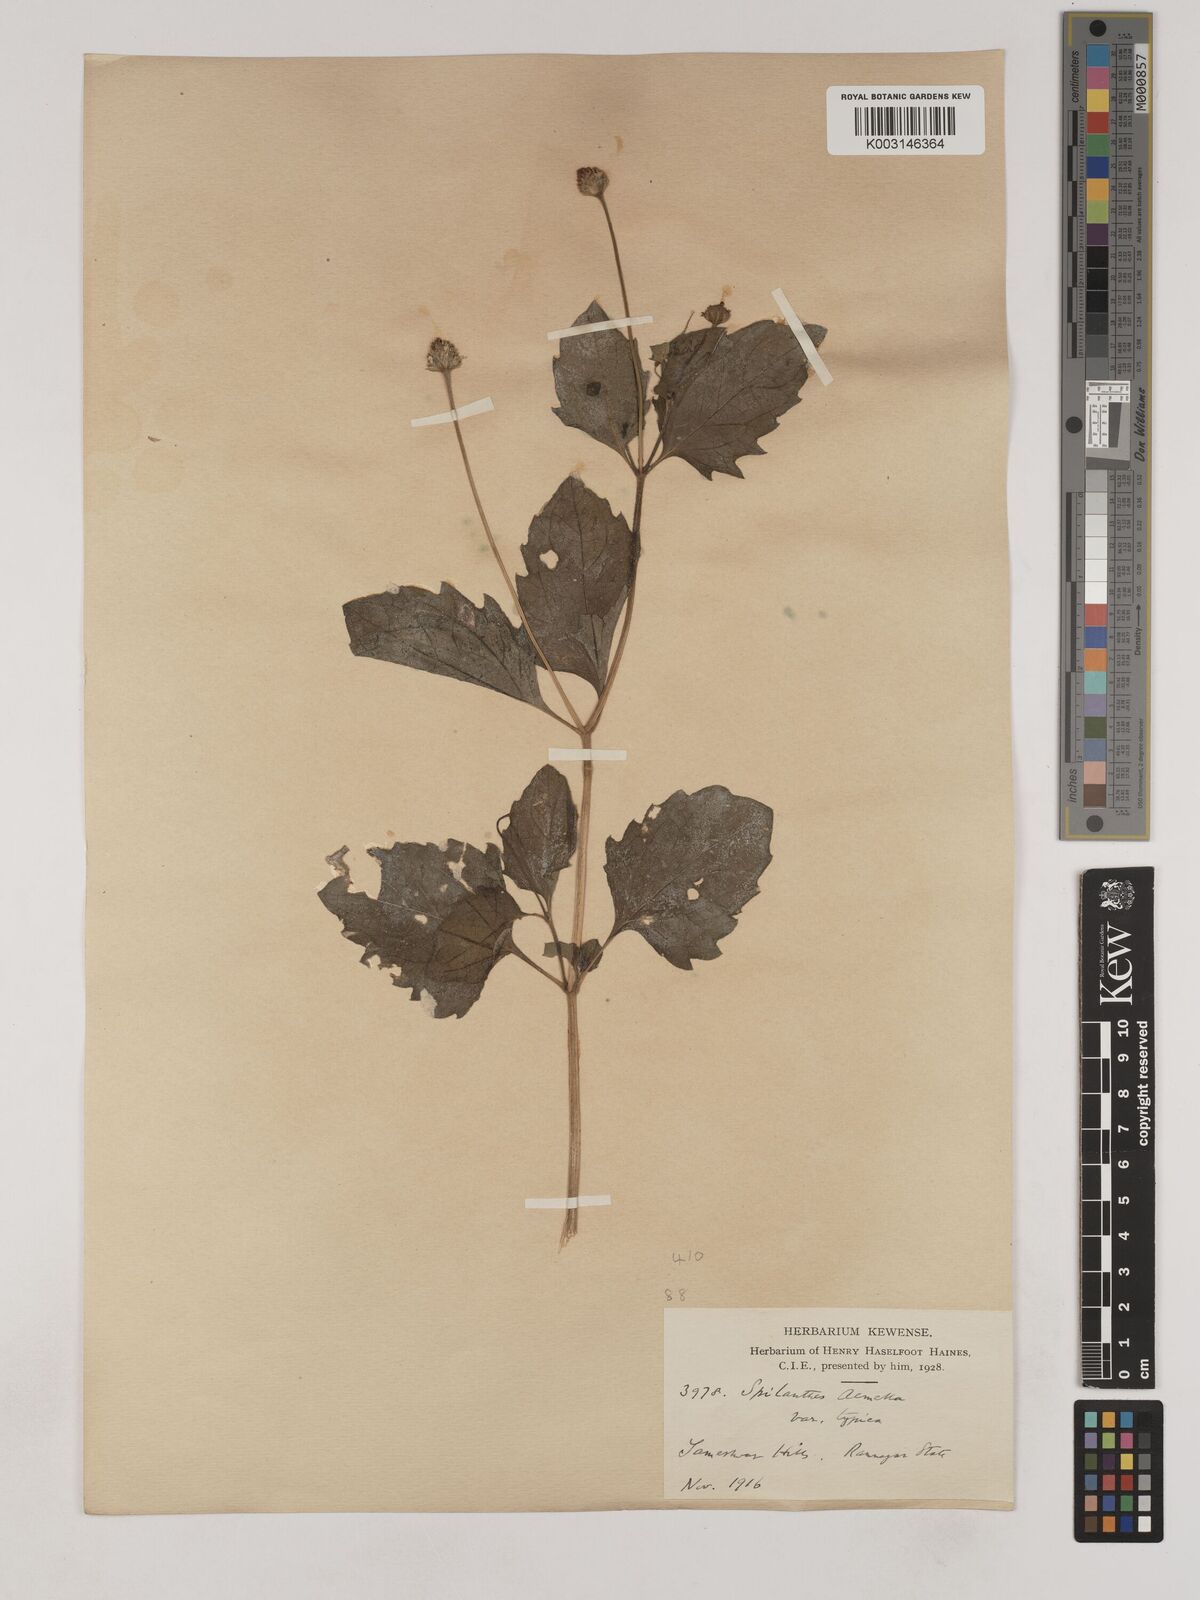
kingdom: Plantae
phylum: Tracheophyta
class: Magnoliopsida
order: Asterales
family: Asteraceae
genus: Acmella
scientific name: Acmella paniculata
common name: Panicled spot flower
